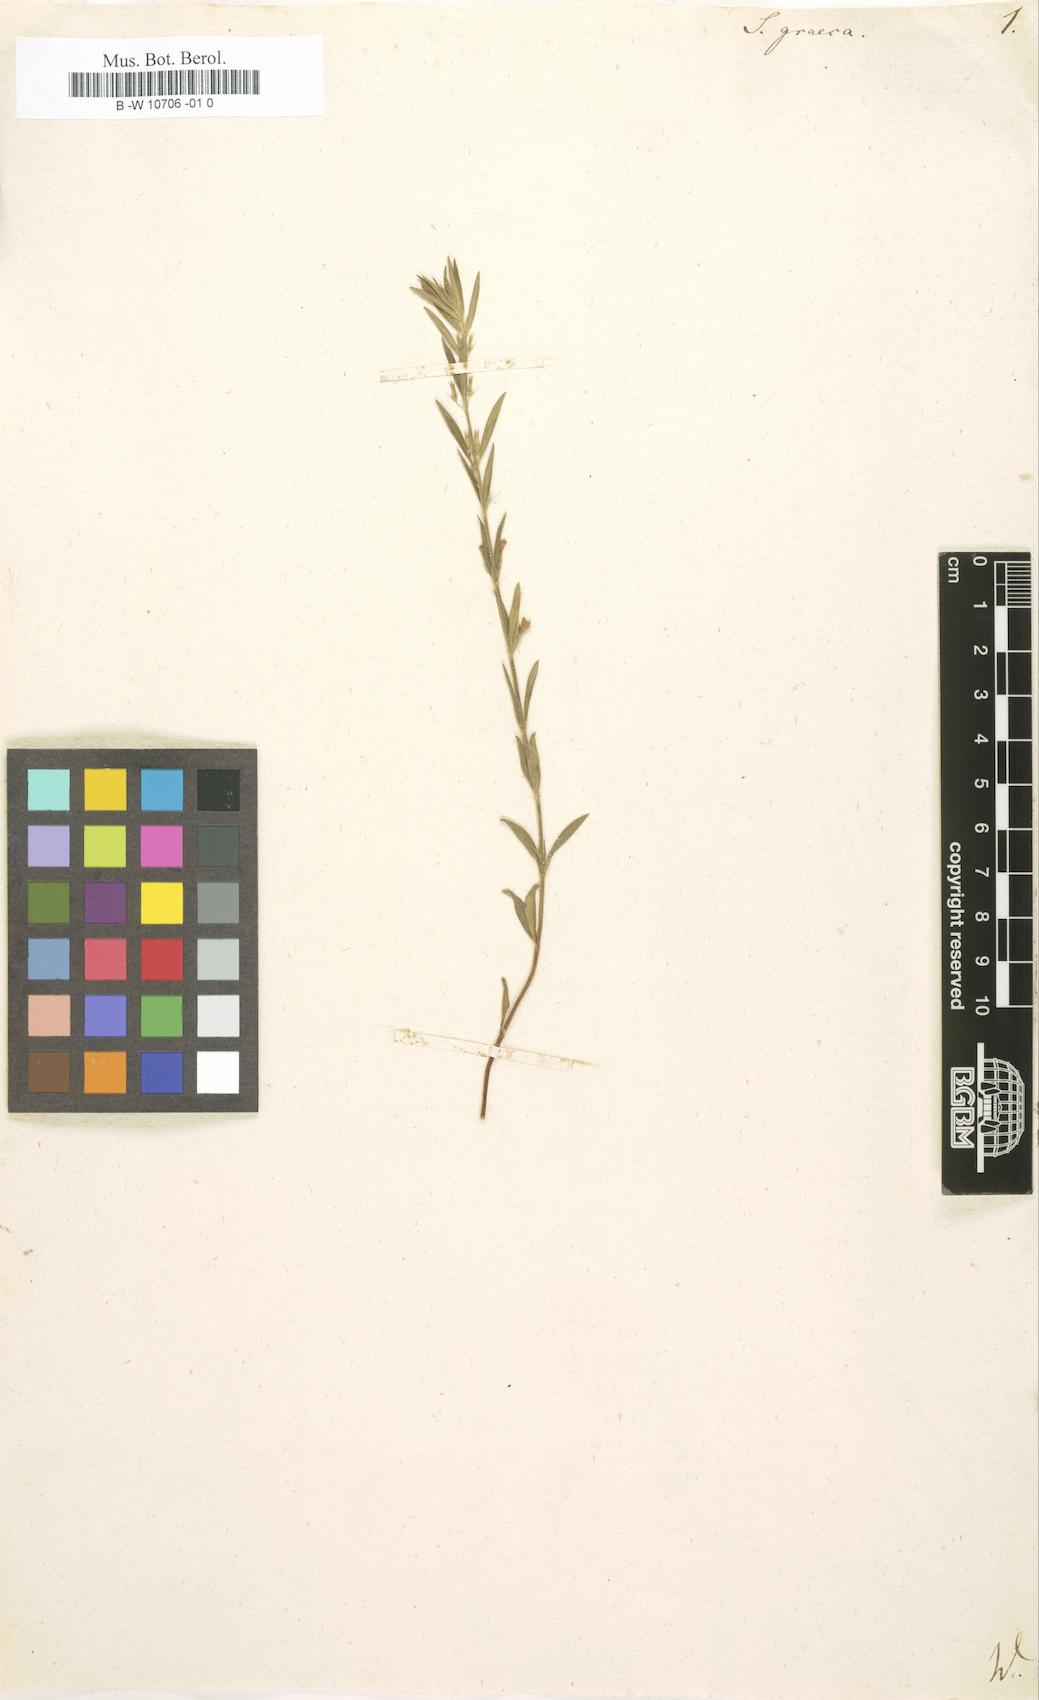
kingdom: Plantae
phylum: Tracheophyta
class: Magnoliopsida
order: Lamiales
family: Lamiaceae
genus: Micromeria
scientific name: Micromeria graeca
